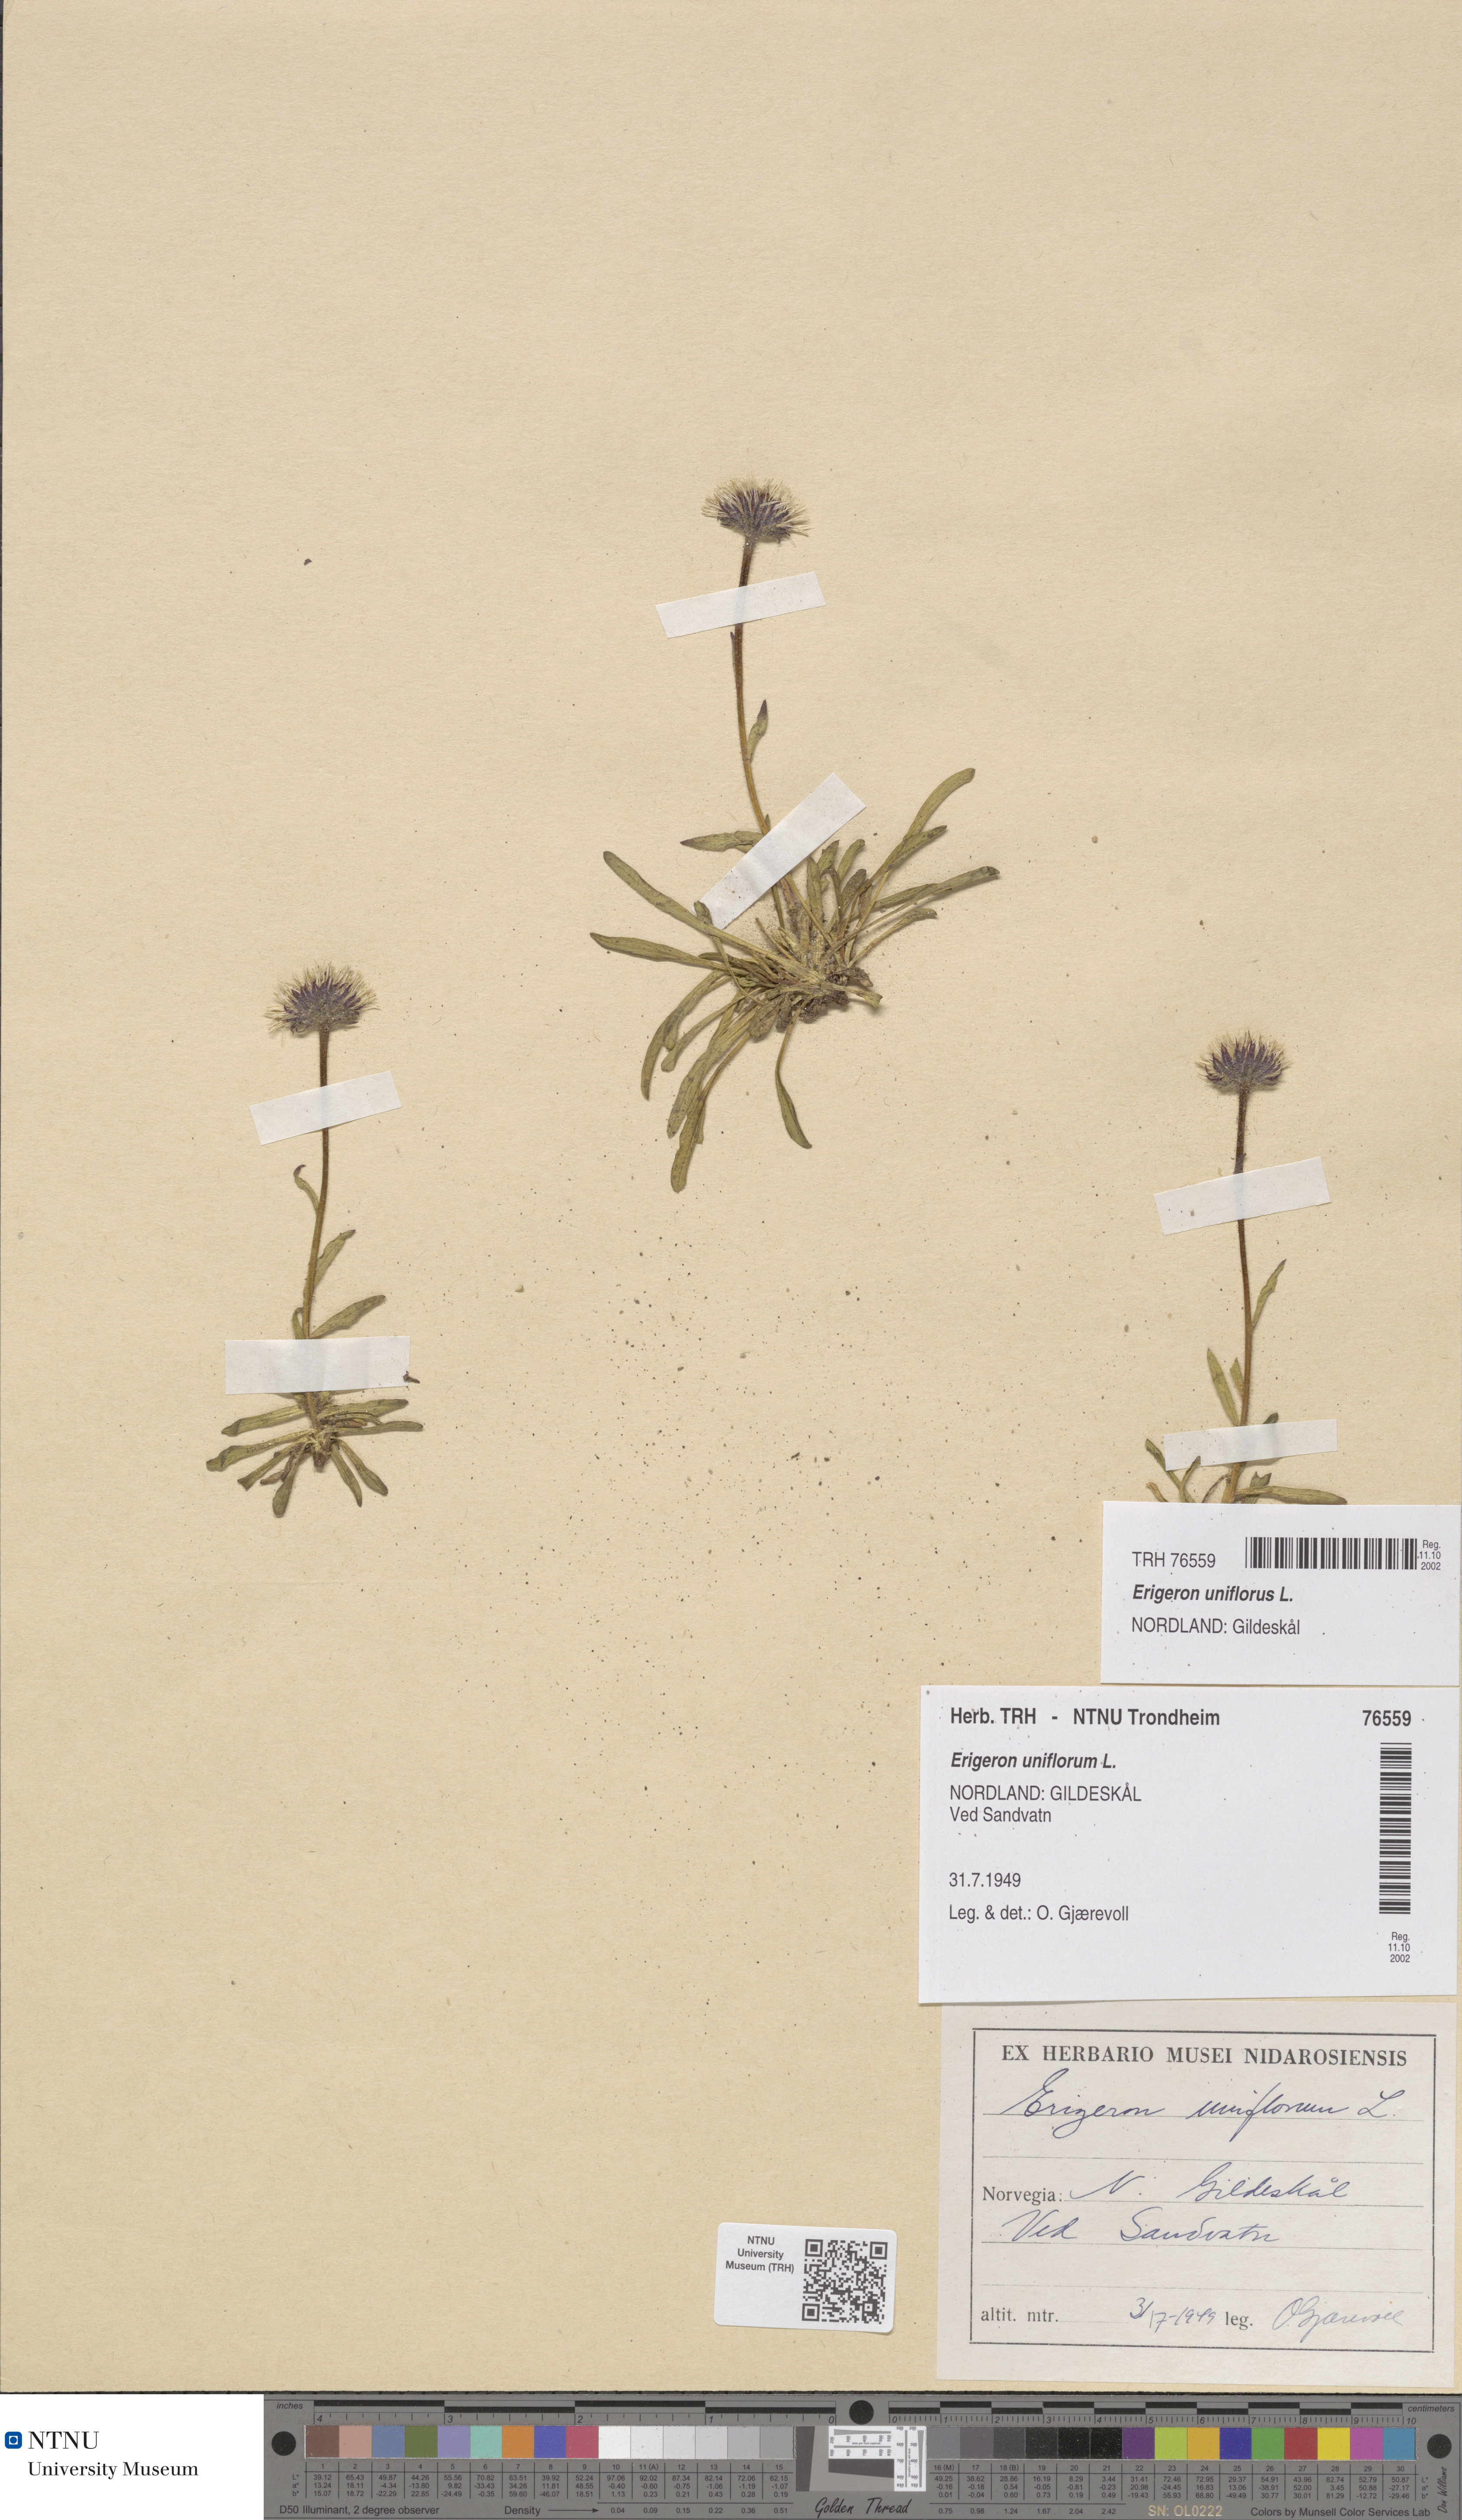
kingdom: Plantae
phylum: Tracheophyta
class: Magnoliopsida
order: Asterales
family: Asteraceae
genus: Erigeron
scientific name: Erigeron uniflorus
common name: Northern daisy
